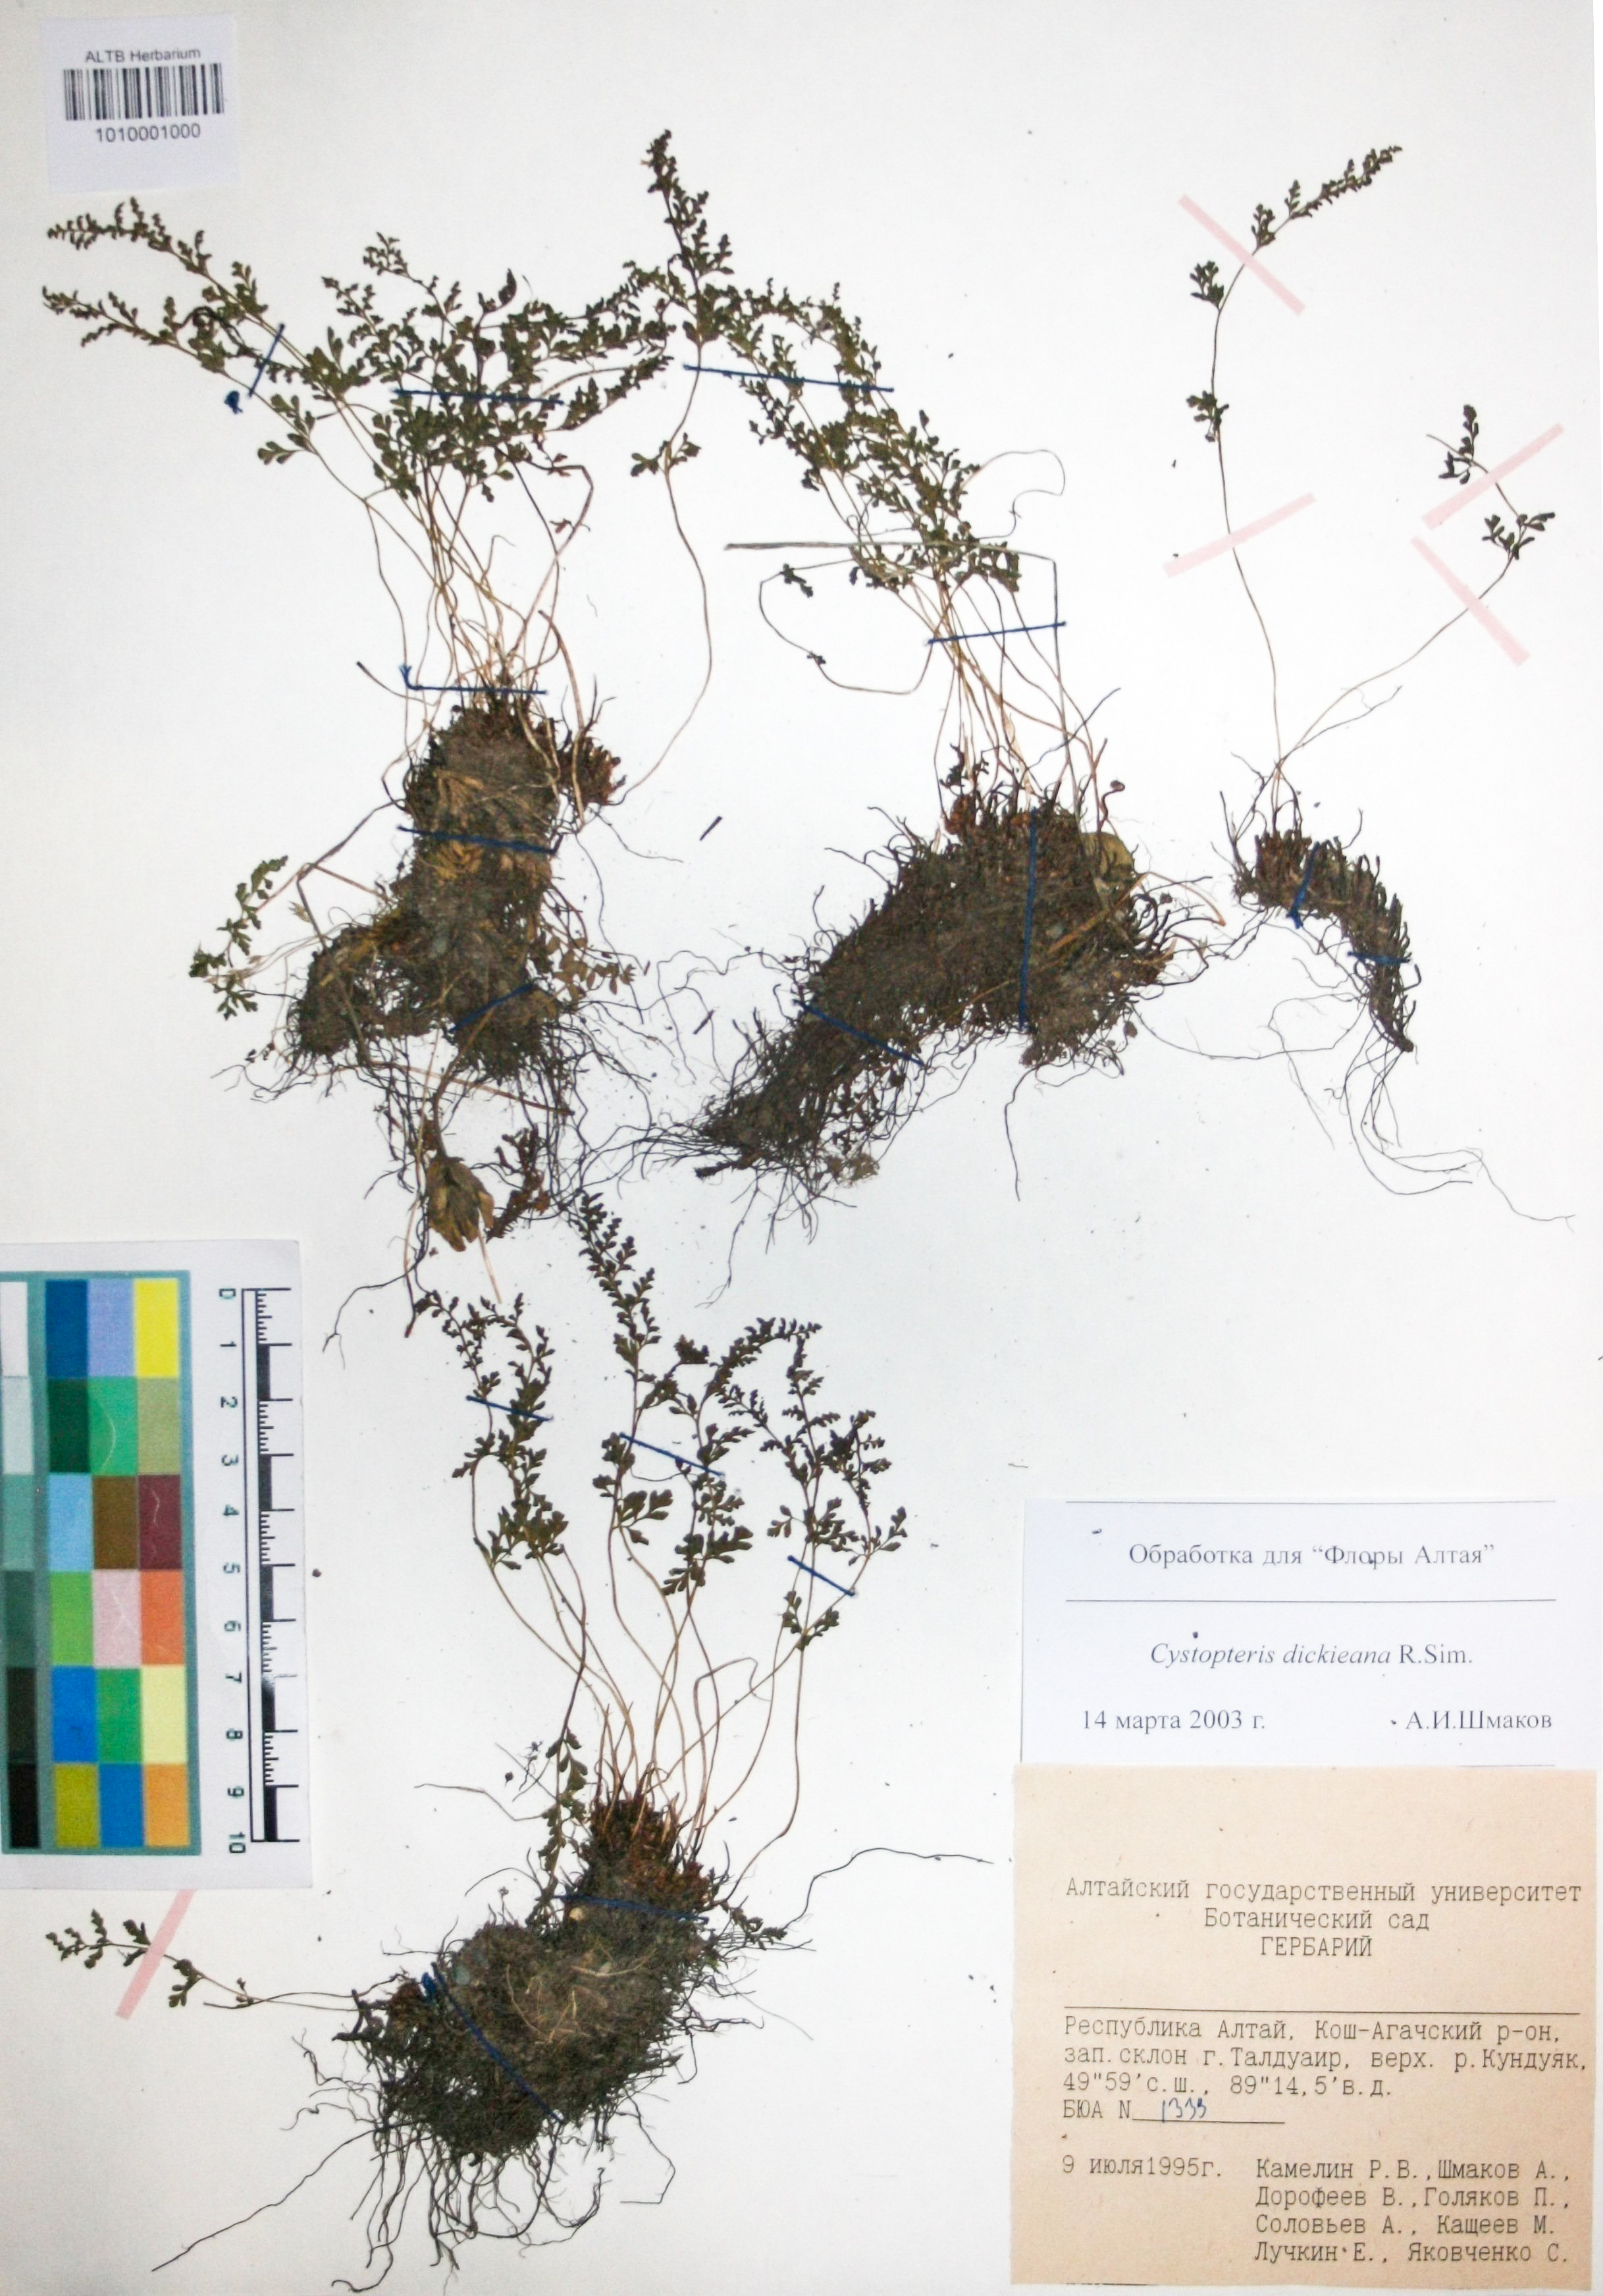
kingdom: Plantae
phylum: Tracheophyta
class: Polypodiopsida
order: Polypodiales
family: Cystopteridaceae
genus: Cystopteris
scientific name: Cystopteris dickieana
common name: Dickie's bladder-fern
